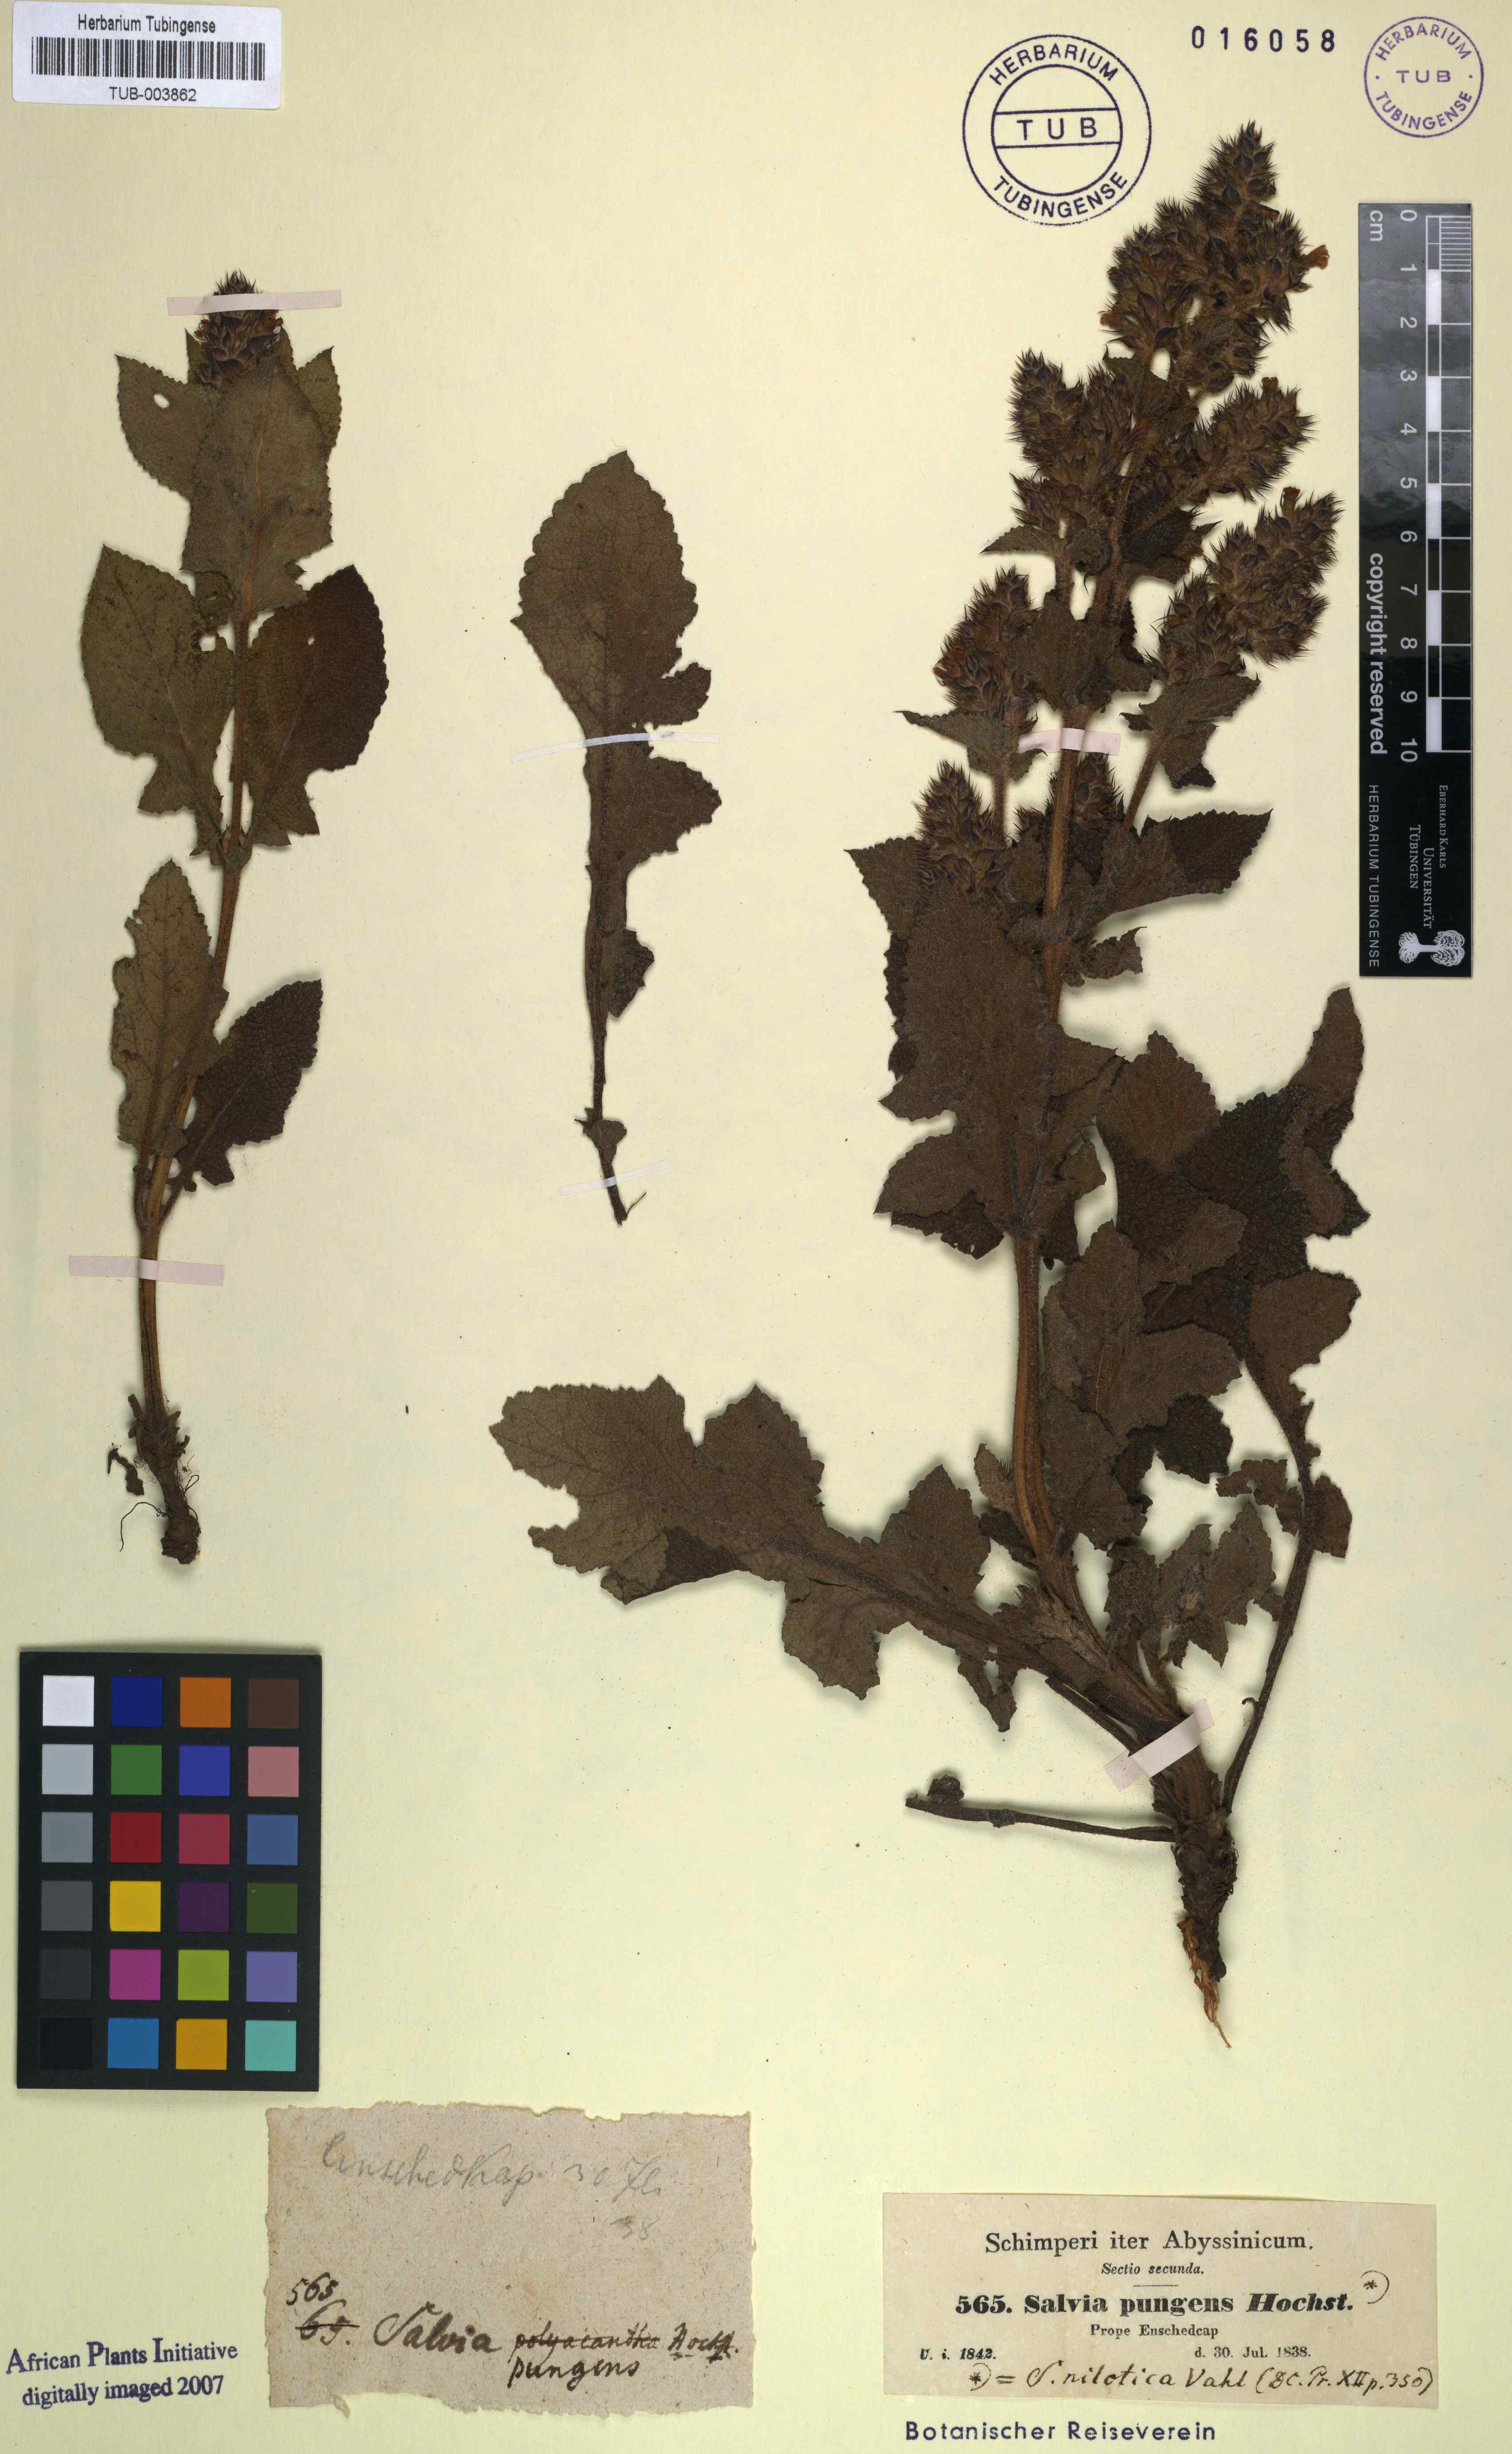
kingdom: Plantae
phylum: Tracheophyta
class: Magnoliopsida
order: Lamiales
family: Lamiaceae
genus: Salvia
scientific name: Salvia nilotica
